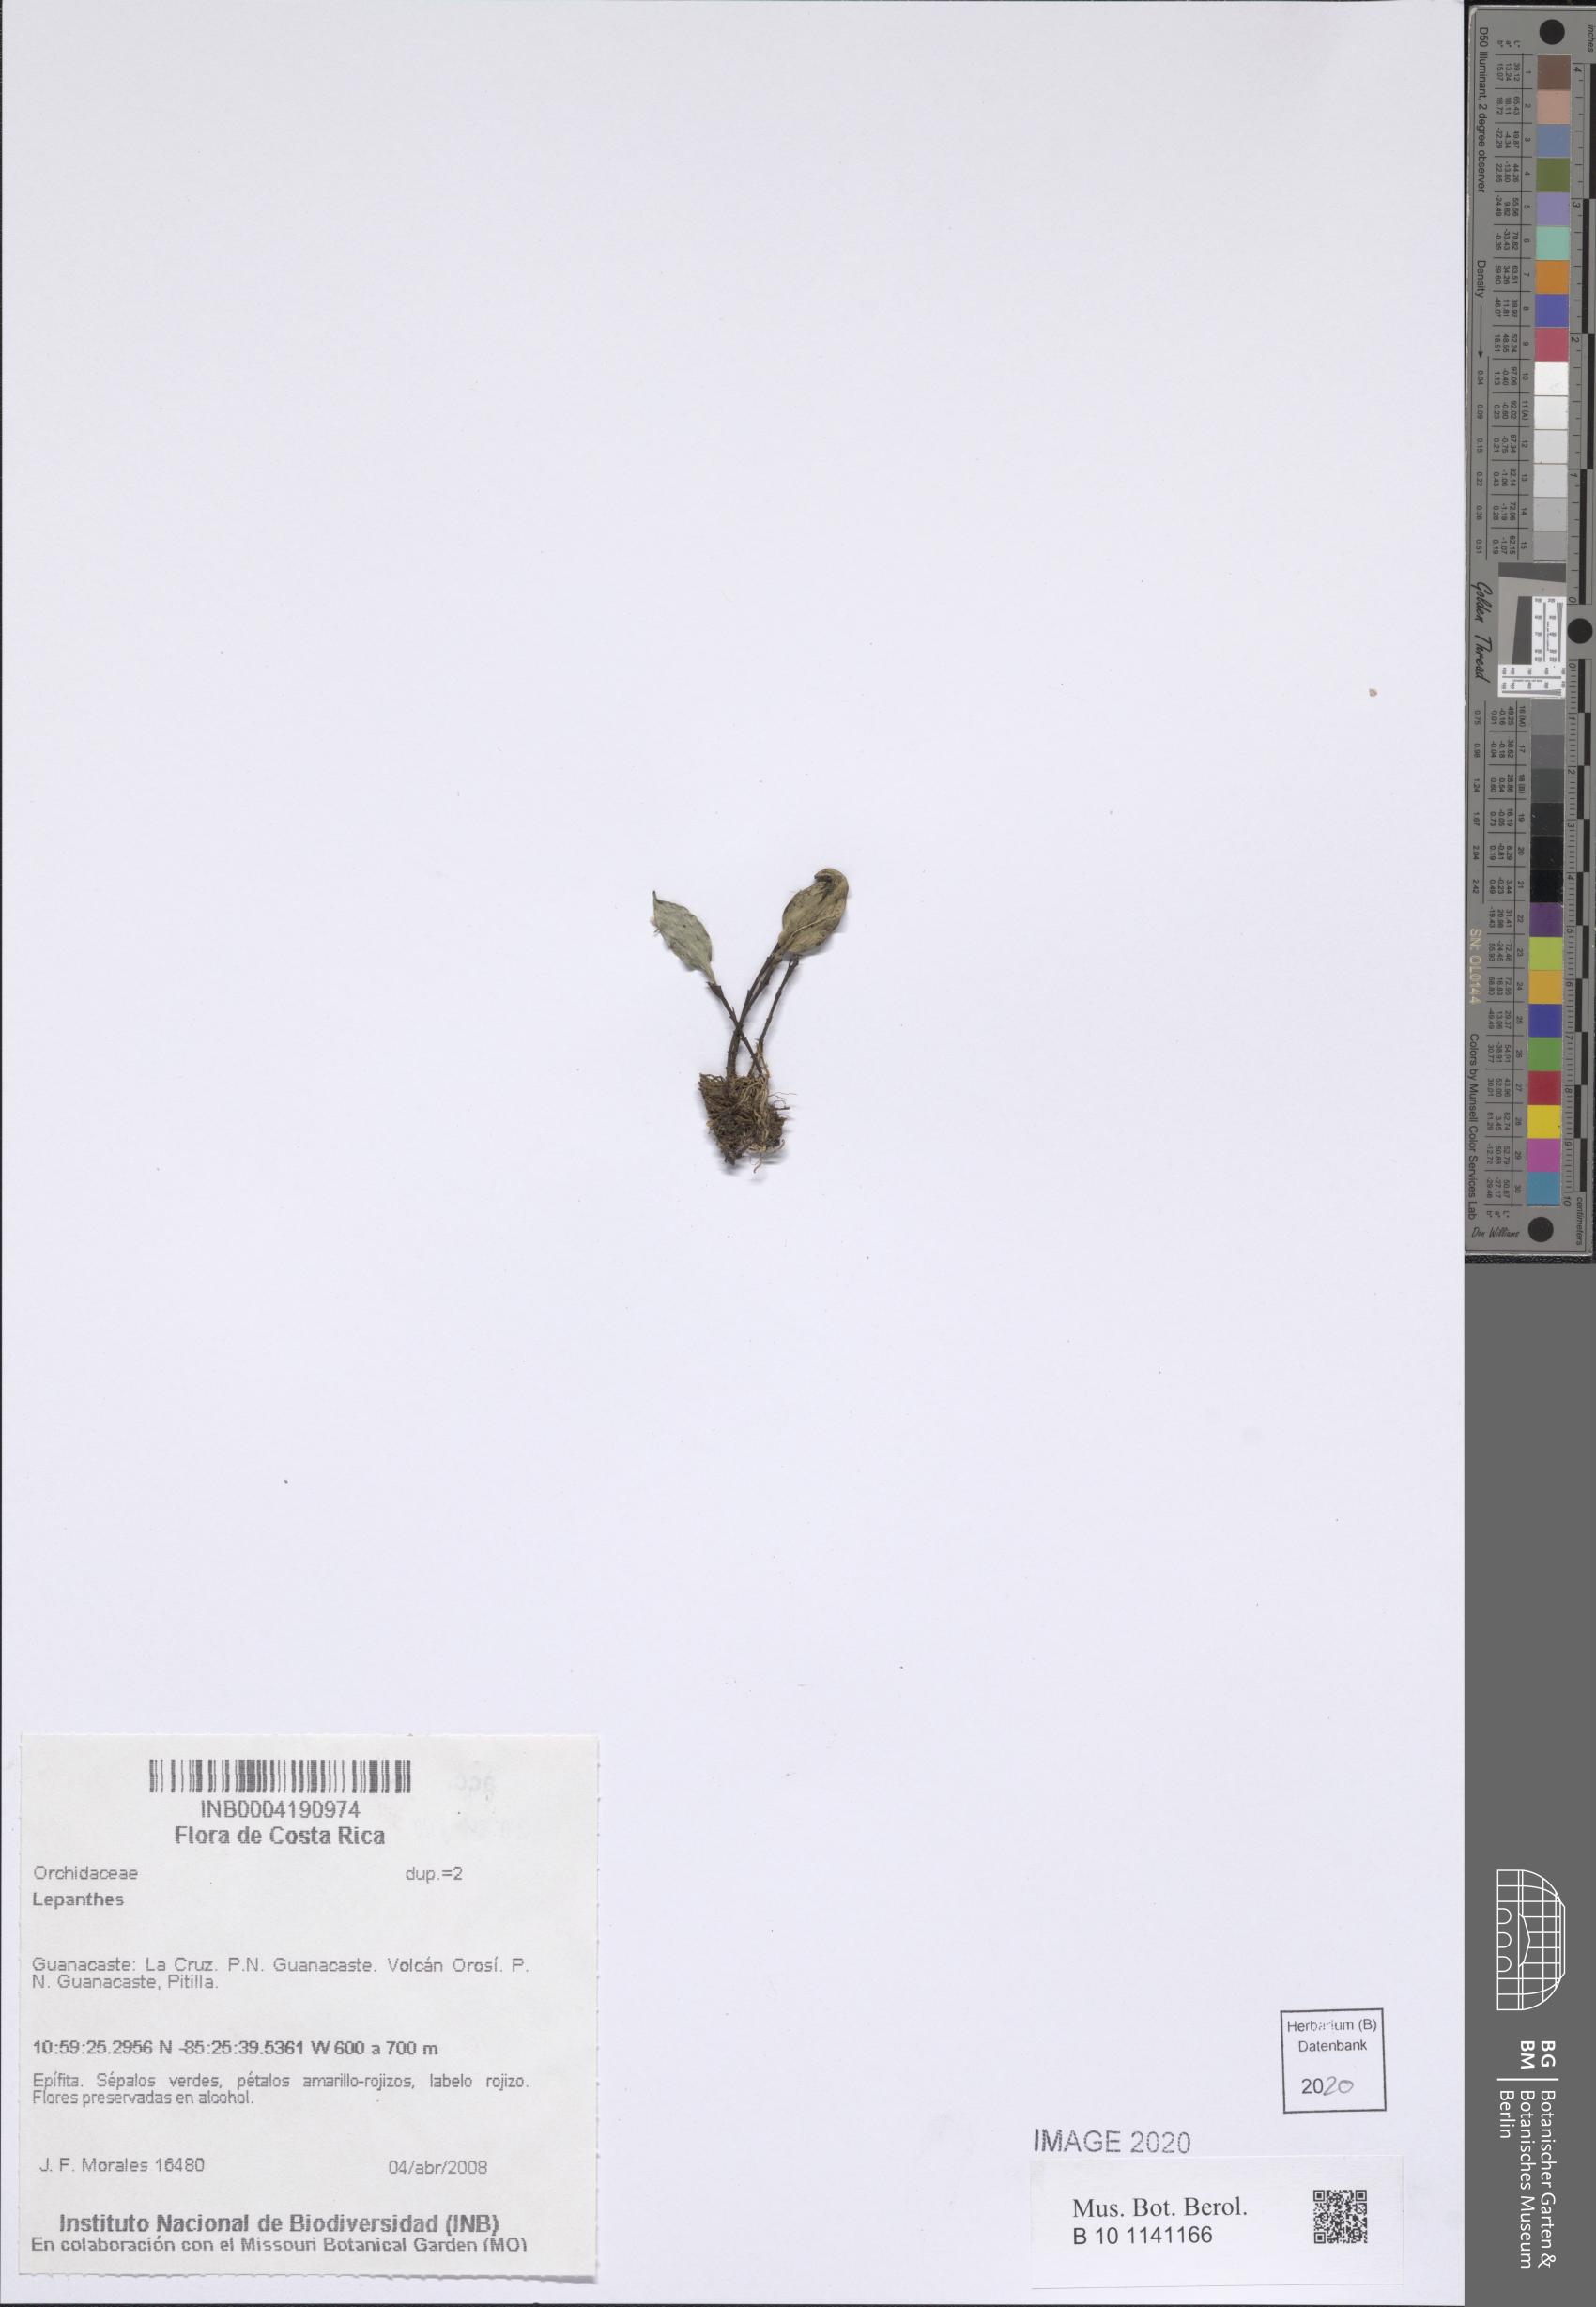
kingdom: Plantae
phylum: Tracheophyta
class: Liliopsida
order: Asparagales
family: Orchidaceae
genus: Lepanthes
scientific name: Lepanthes
